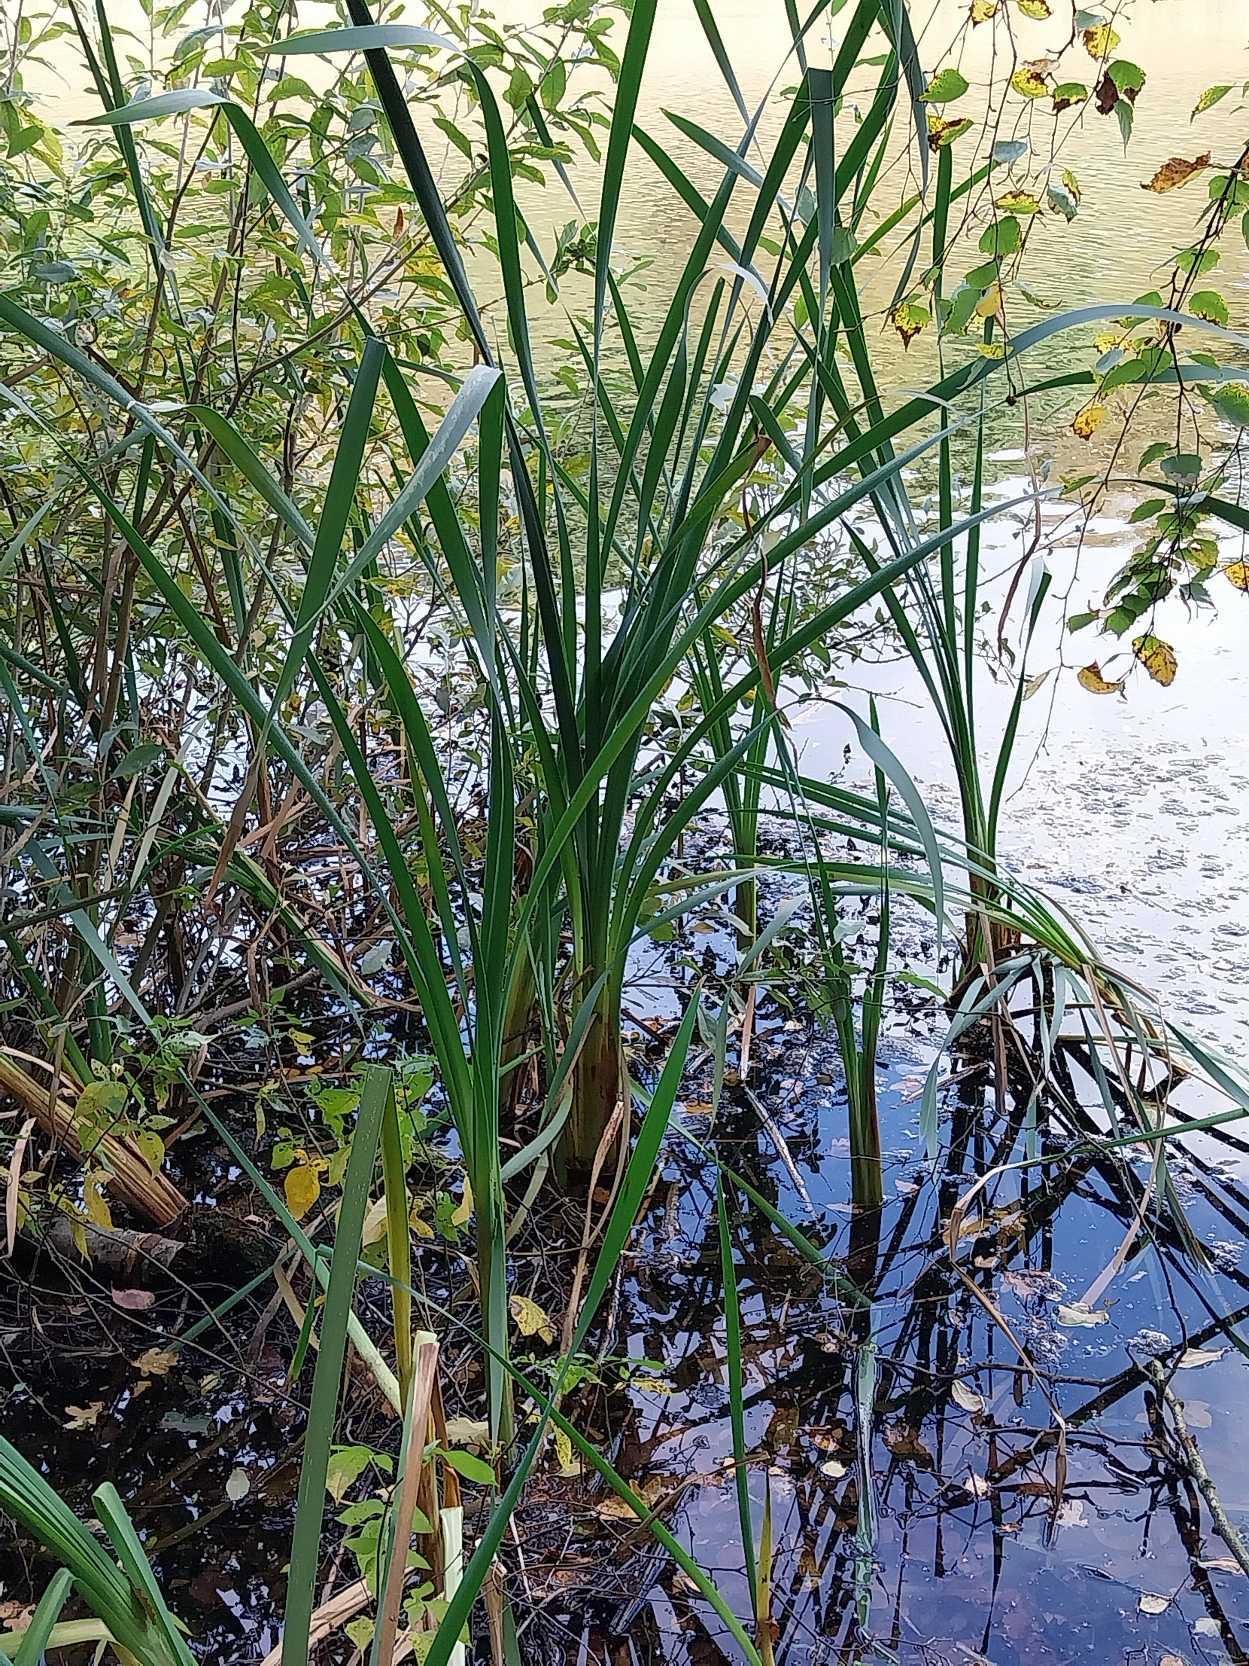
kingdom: Plantae
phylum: Tracheophyta
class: Liliopsida
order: Poales
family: Typhaceae
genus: Typha
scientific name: Typha latifolia
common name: Bredbladet dunhammer
